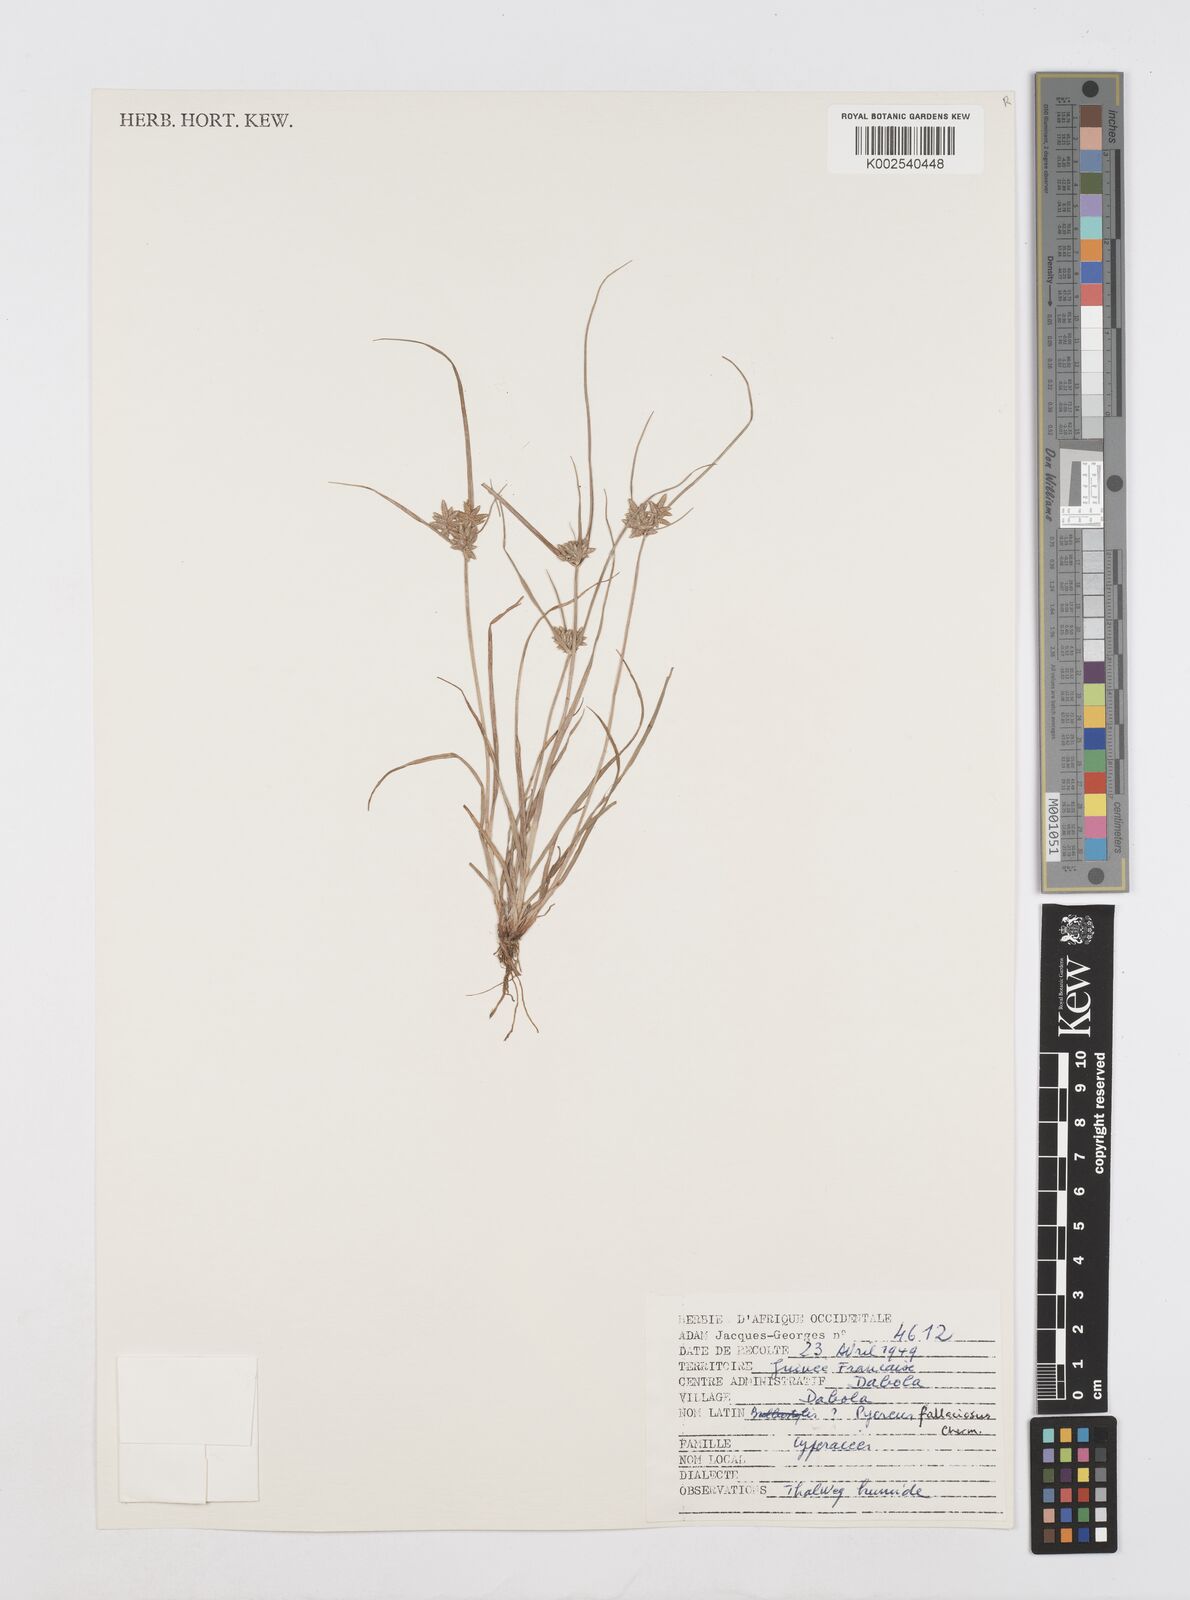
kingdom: Plantae
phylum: Tracheophyta
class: Liliopsida
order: Poales
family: Cyperaceae
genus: Cyperus
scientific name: Cyperus flavescens
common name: Yellow galingale
